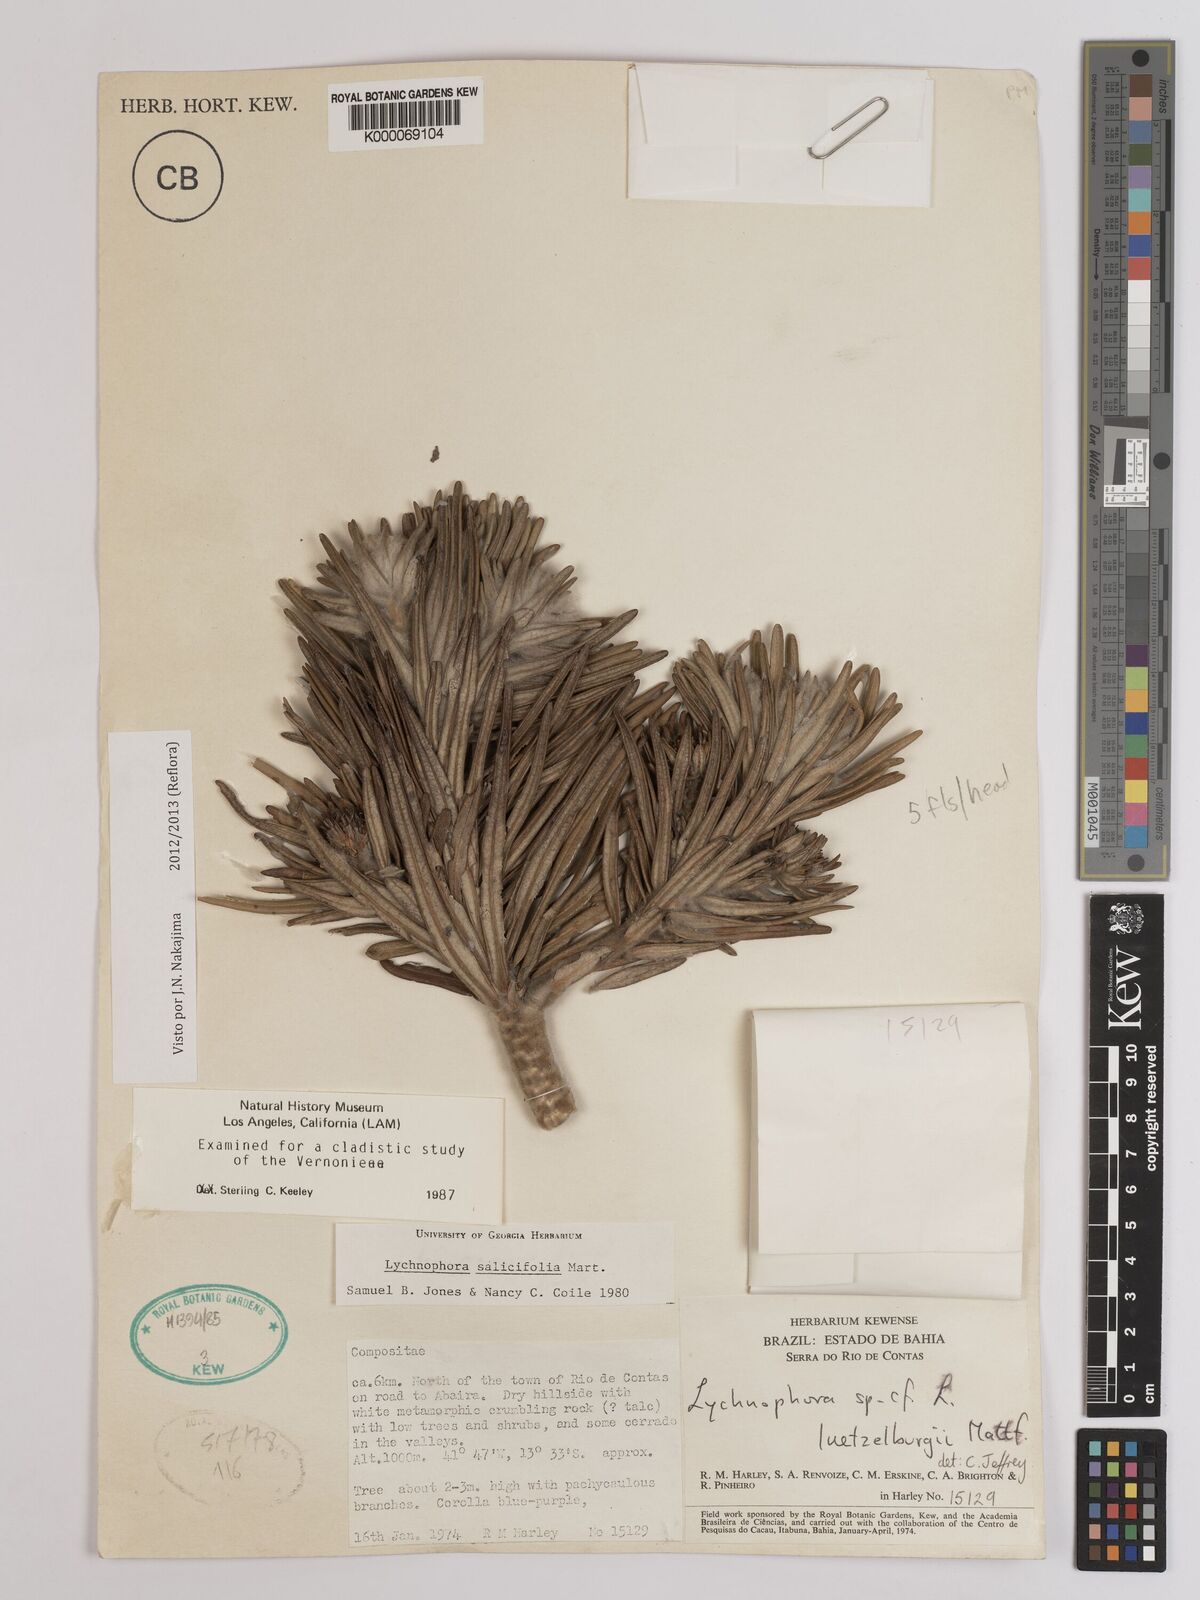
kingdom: Plantae
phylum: Tracheophyta
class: Magnoliopsida
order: Asterales
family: Asteraceae
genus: Lychnophora
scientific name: Lychnophora salicifolia
